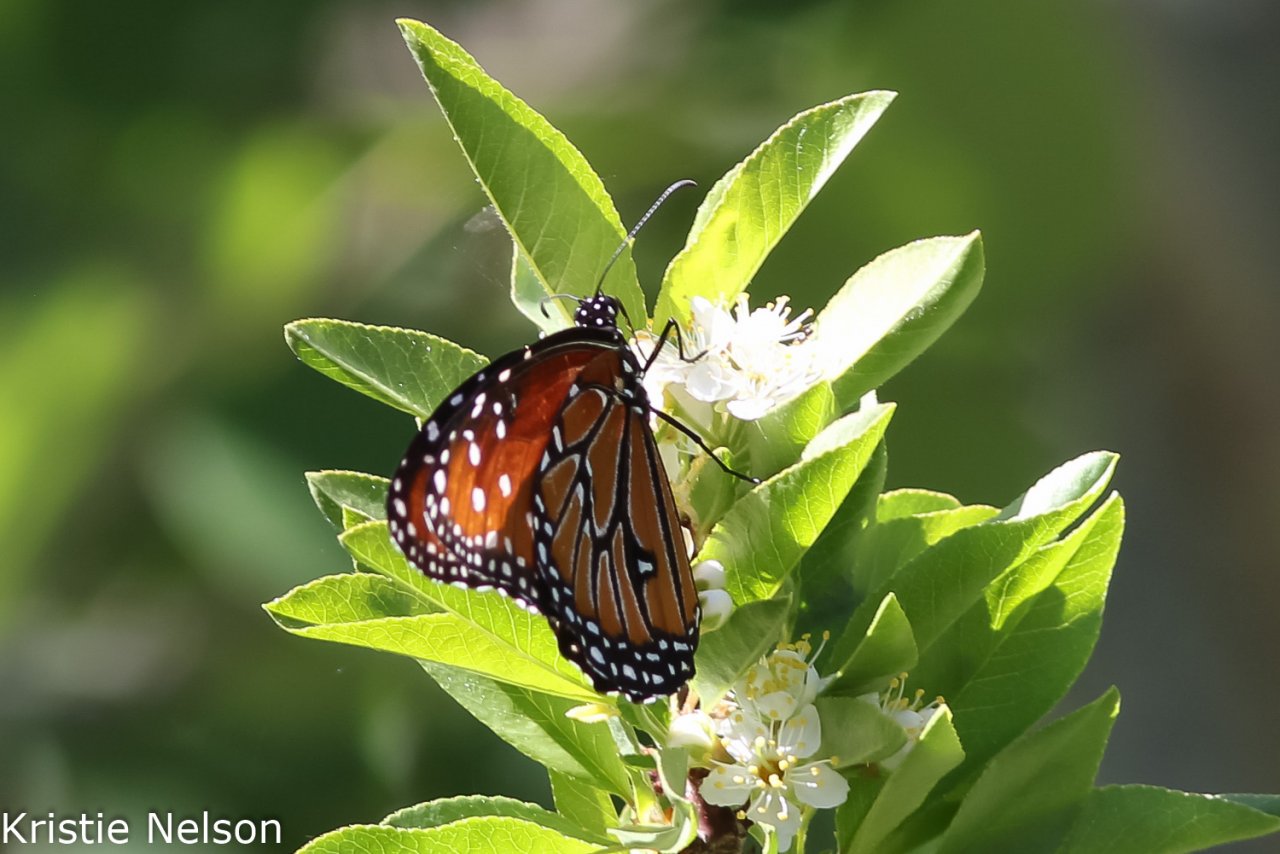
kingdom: Animalia
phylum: Arthropoda
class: Insecta
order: Lepidoptera
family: Nymphalidae
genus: Danaus
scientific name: Danaus gilippus
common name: Queen
